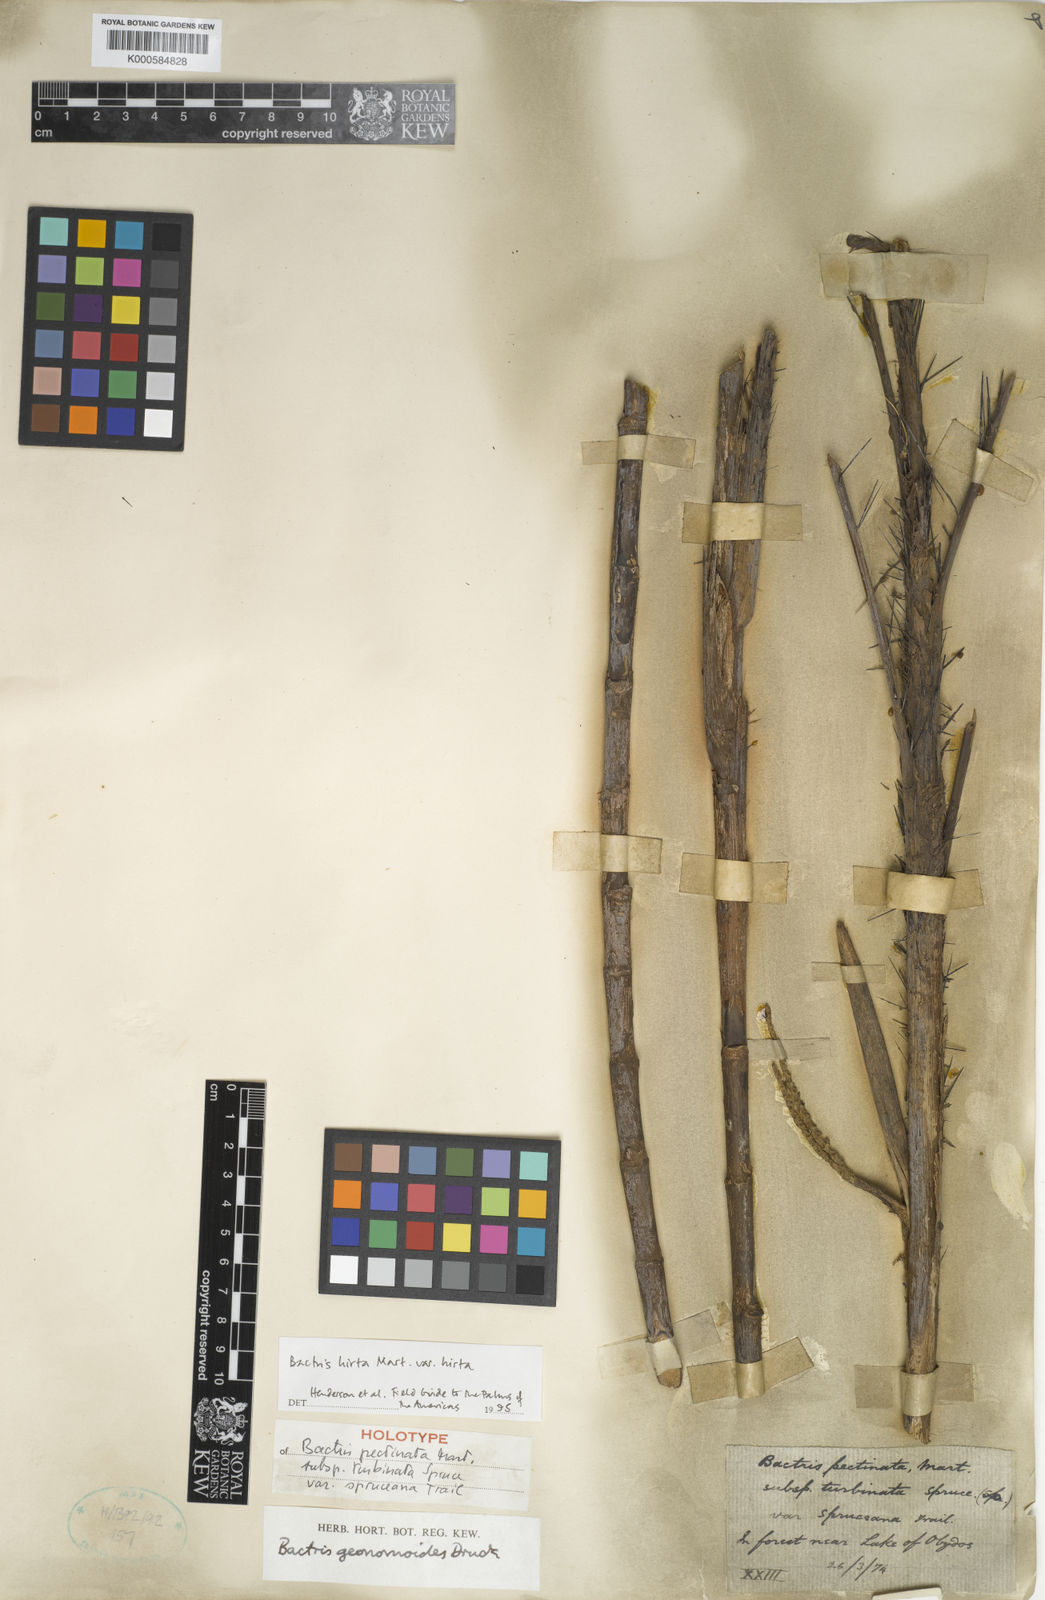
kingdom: Plantae
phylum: Tracheophyta
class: Liliopsida
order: Arecales
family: Arecaceae
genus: Bactris
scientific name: Bactris hirta
